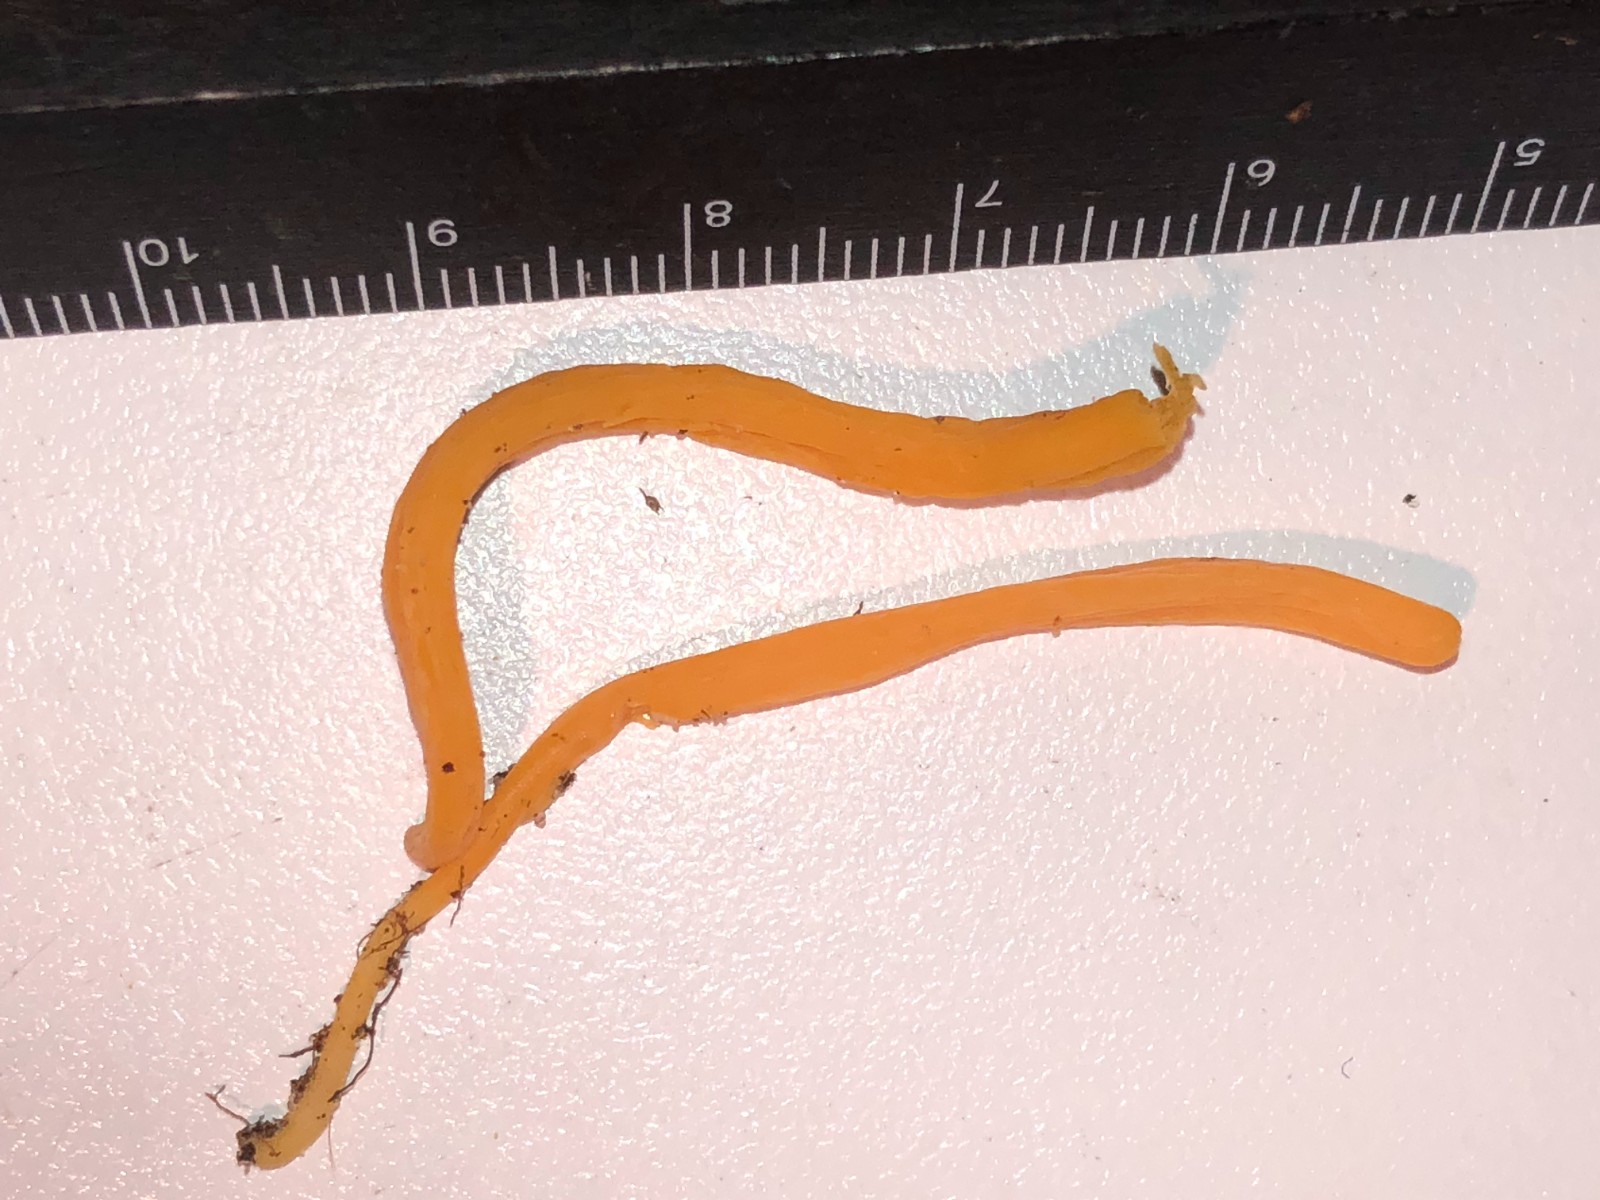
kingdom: Fungi
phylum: Basidiomycota
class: Agaricomycetes
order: Agaricales
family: Clavariaceae
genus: Clavulinopsis
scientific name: Clavulinopsis luteoalba
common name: abrikos-køllesvamp
